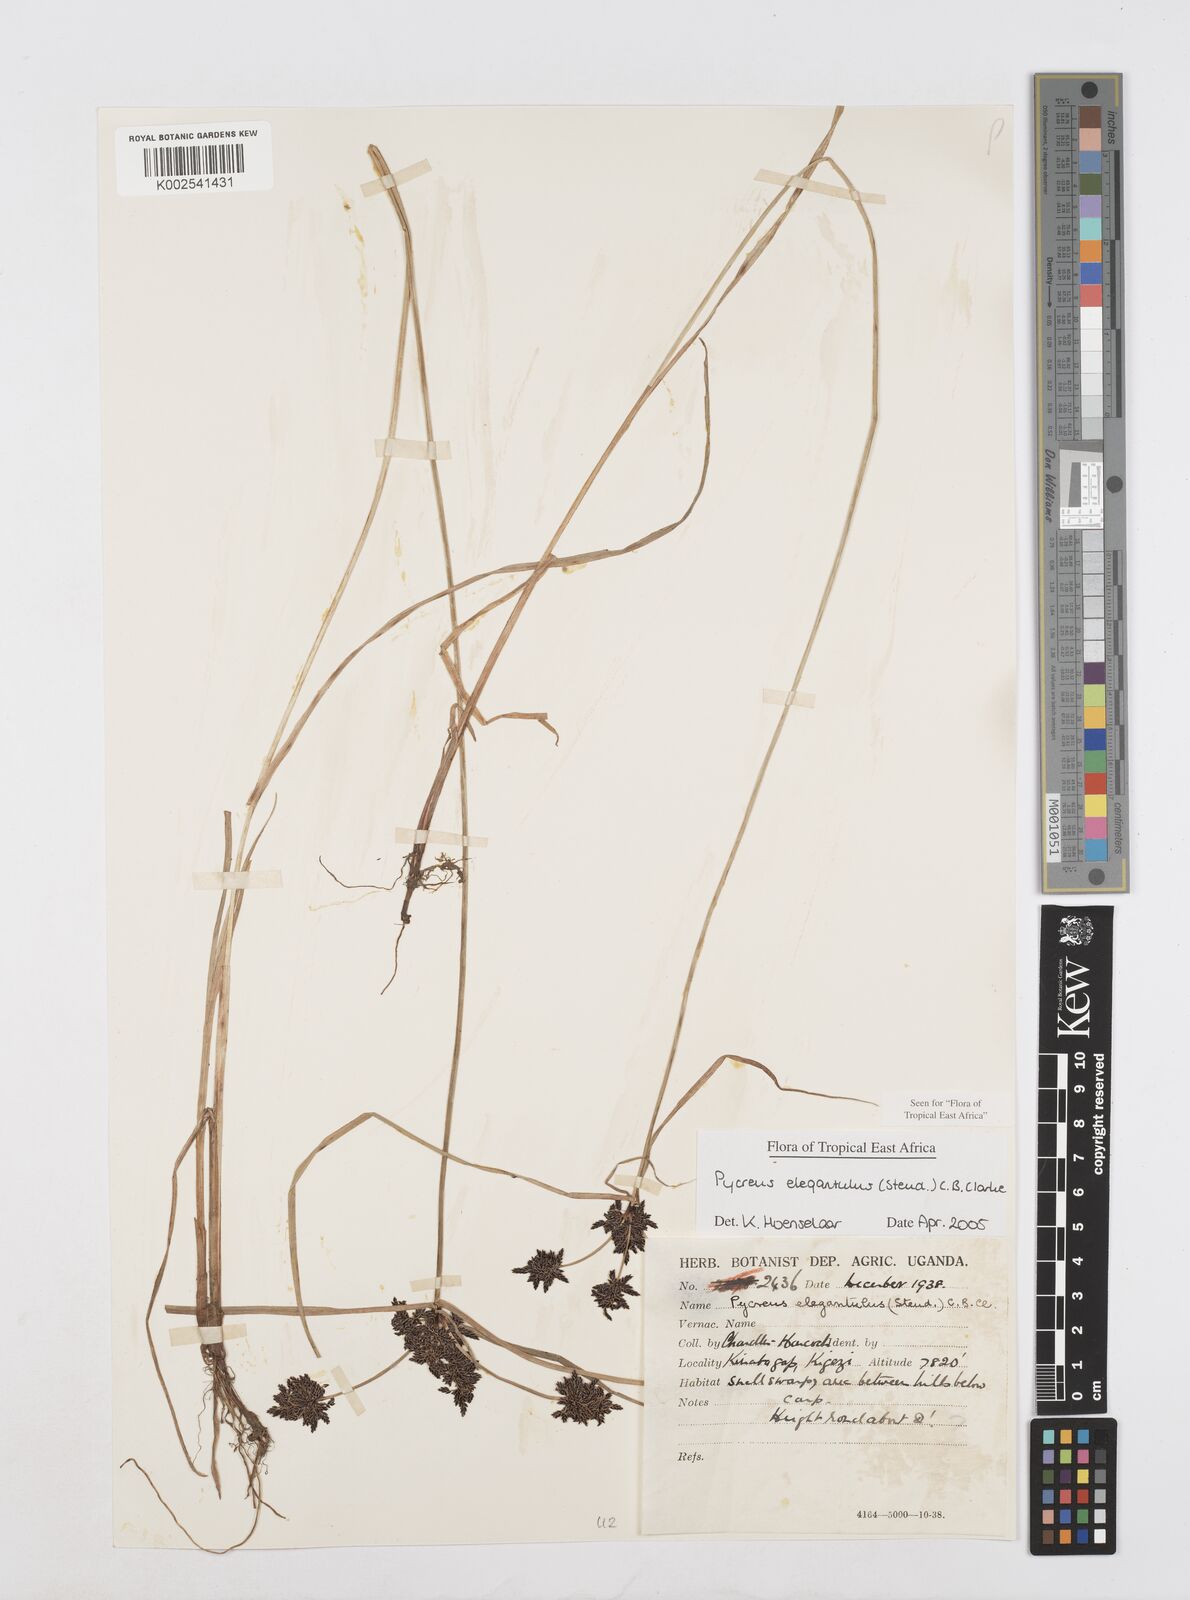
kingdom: Plantae
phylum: Tracheophyta
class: Liliopsida
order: Poales
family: Cyperaceae
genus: Cyperus
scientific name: Cyperus elegantulus
